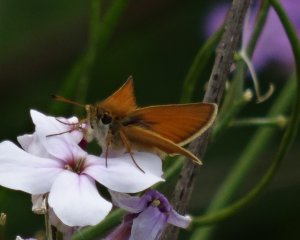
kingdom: Animalia
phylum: Arthropoda
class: Insecta
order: Lepidoptera
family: Hesperiidae
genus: Thymelicus
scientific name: Thymelicus lineola
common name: European Skipper
